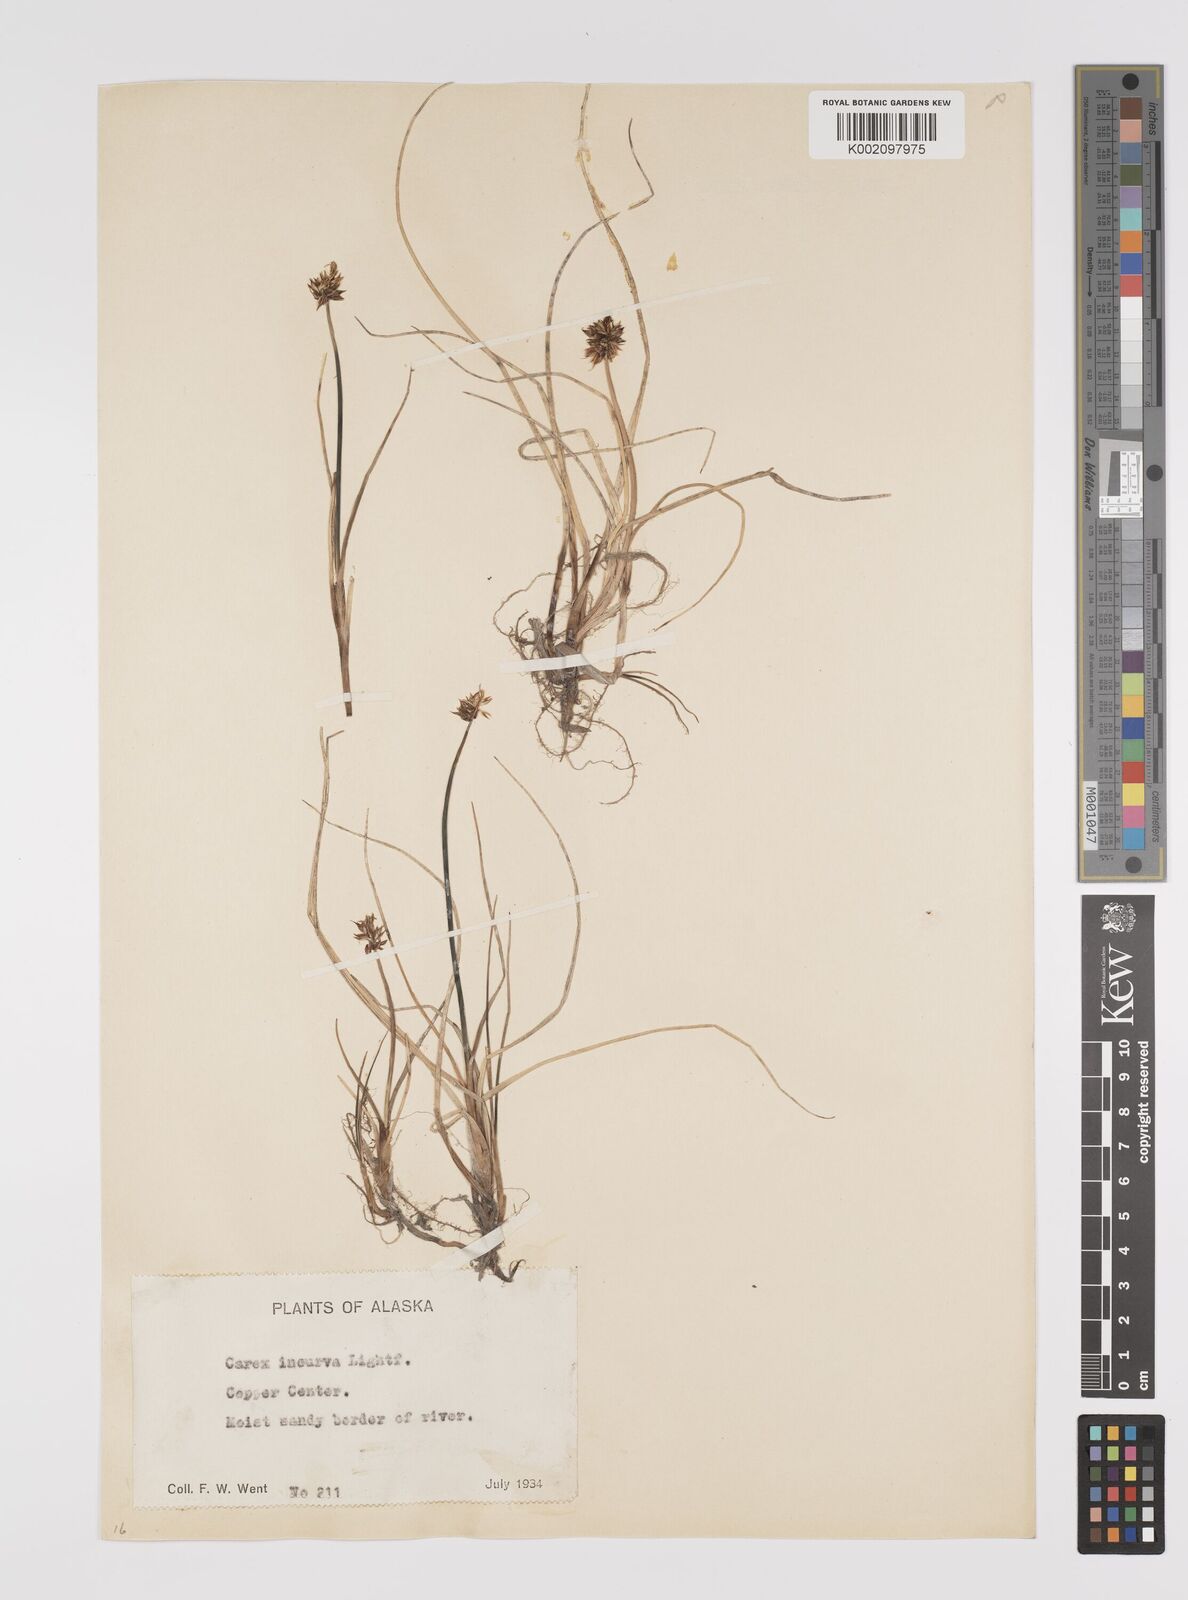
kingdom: Plantae
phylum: Tracheophyta
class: Liliopsida
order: Poales
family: Cyperaceae
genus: Carex
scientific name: Carex maritima
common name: Curved sedge
